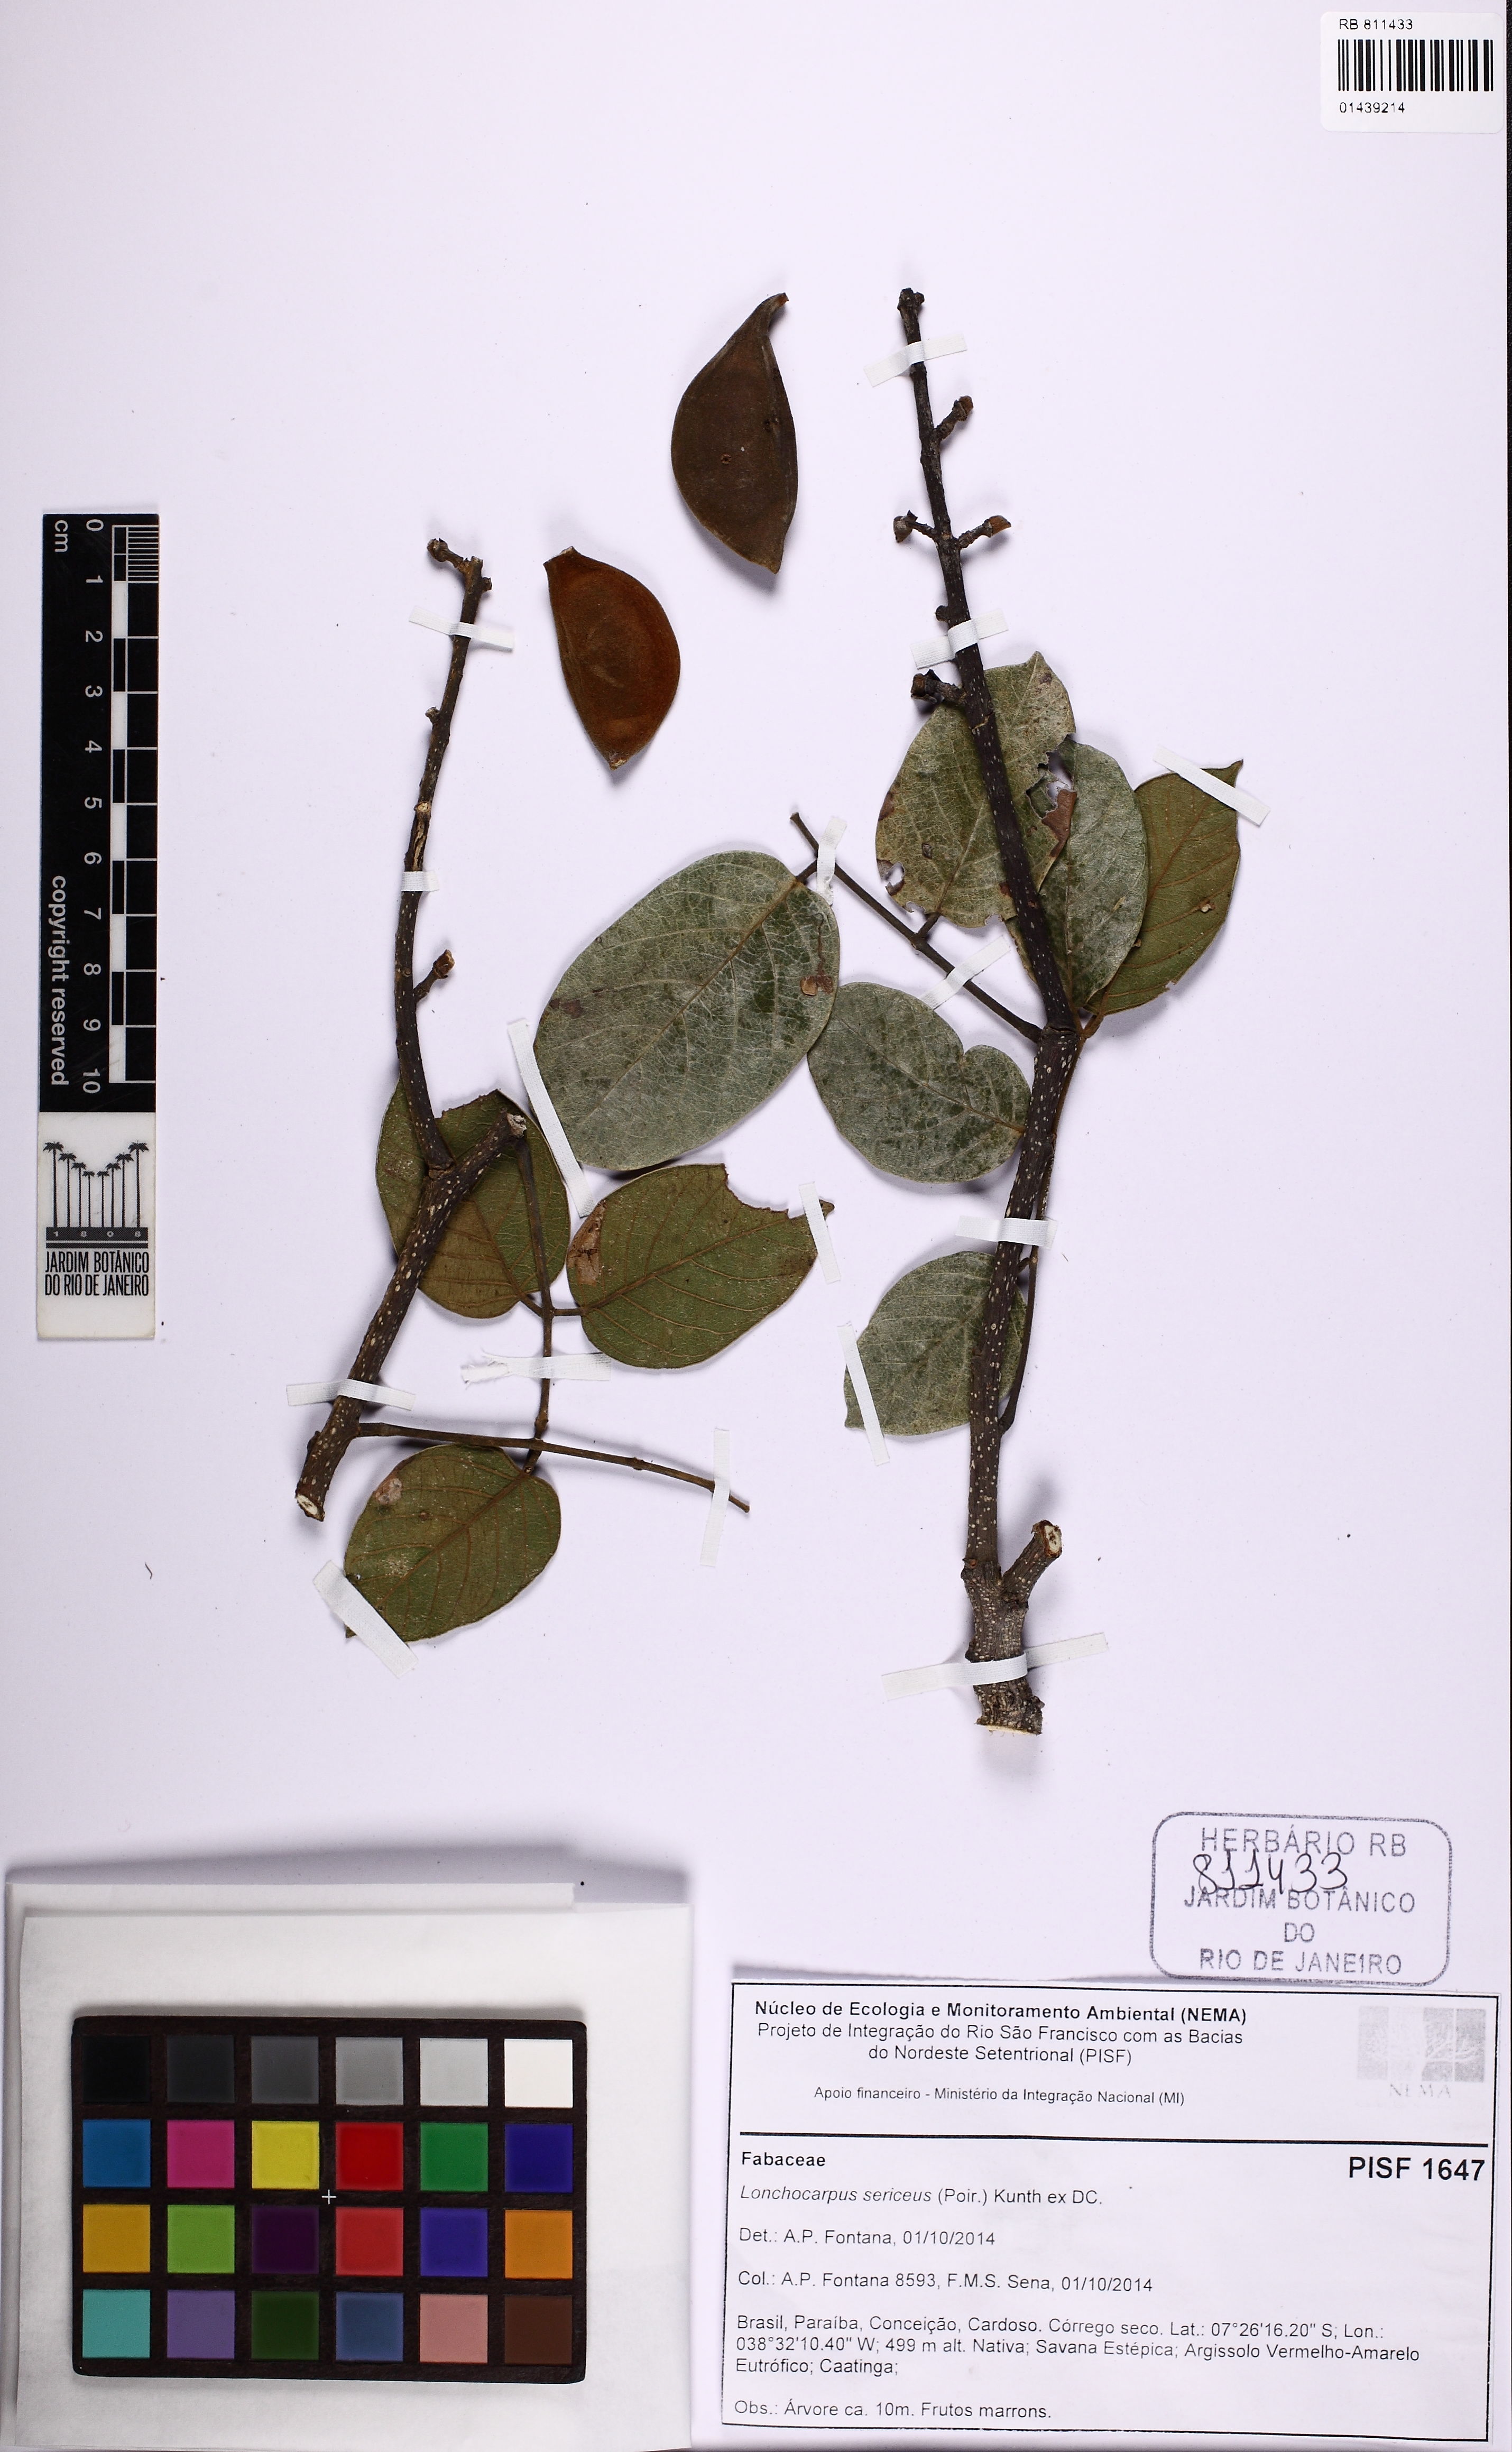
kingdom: Plantae
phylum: Tracheophyta
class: Magnoliopsida
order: Fabales
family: Fabaceae
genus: Lonchocarpus
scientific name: Lonchocarpus sericeus
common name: Savonette
